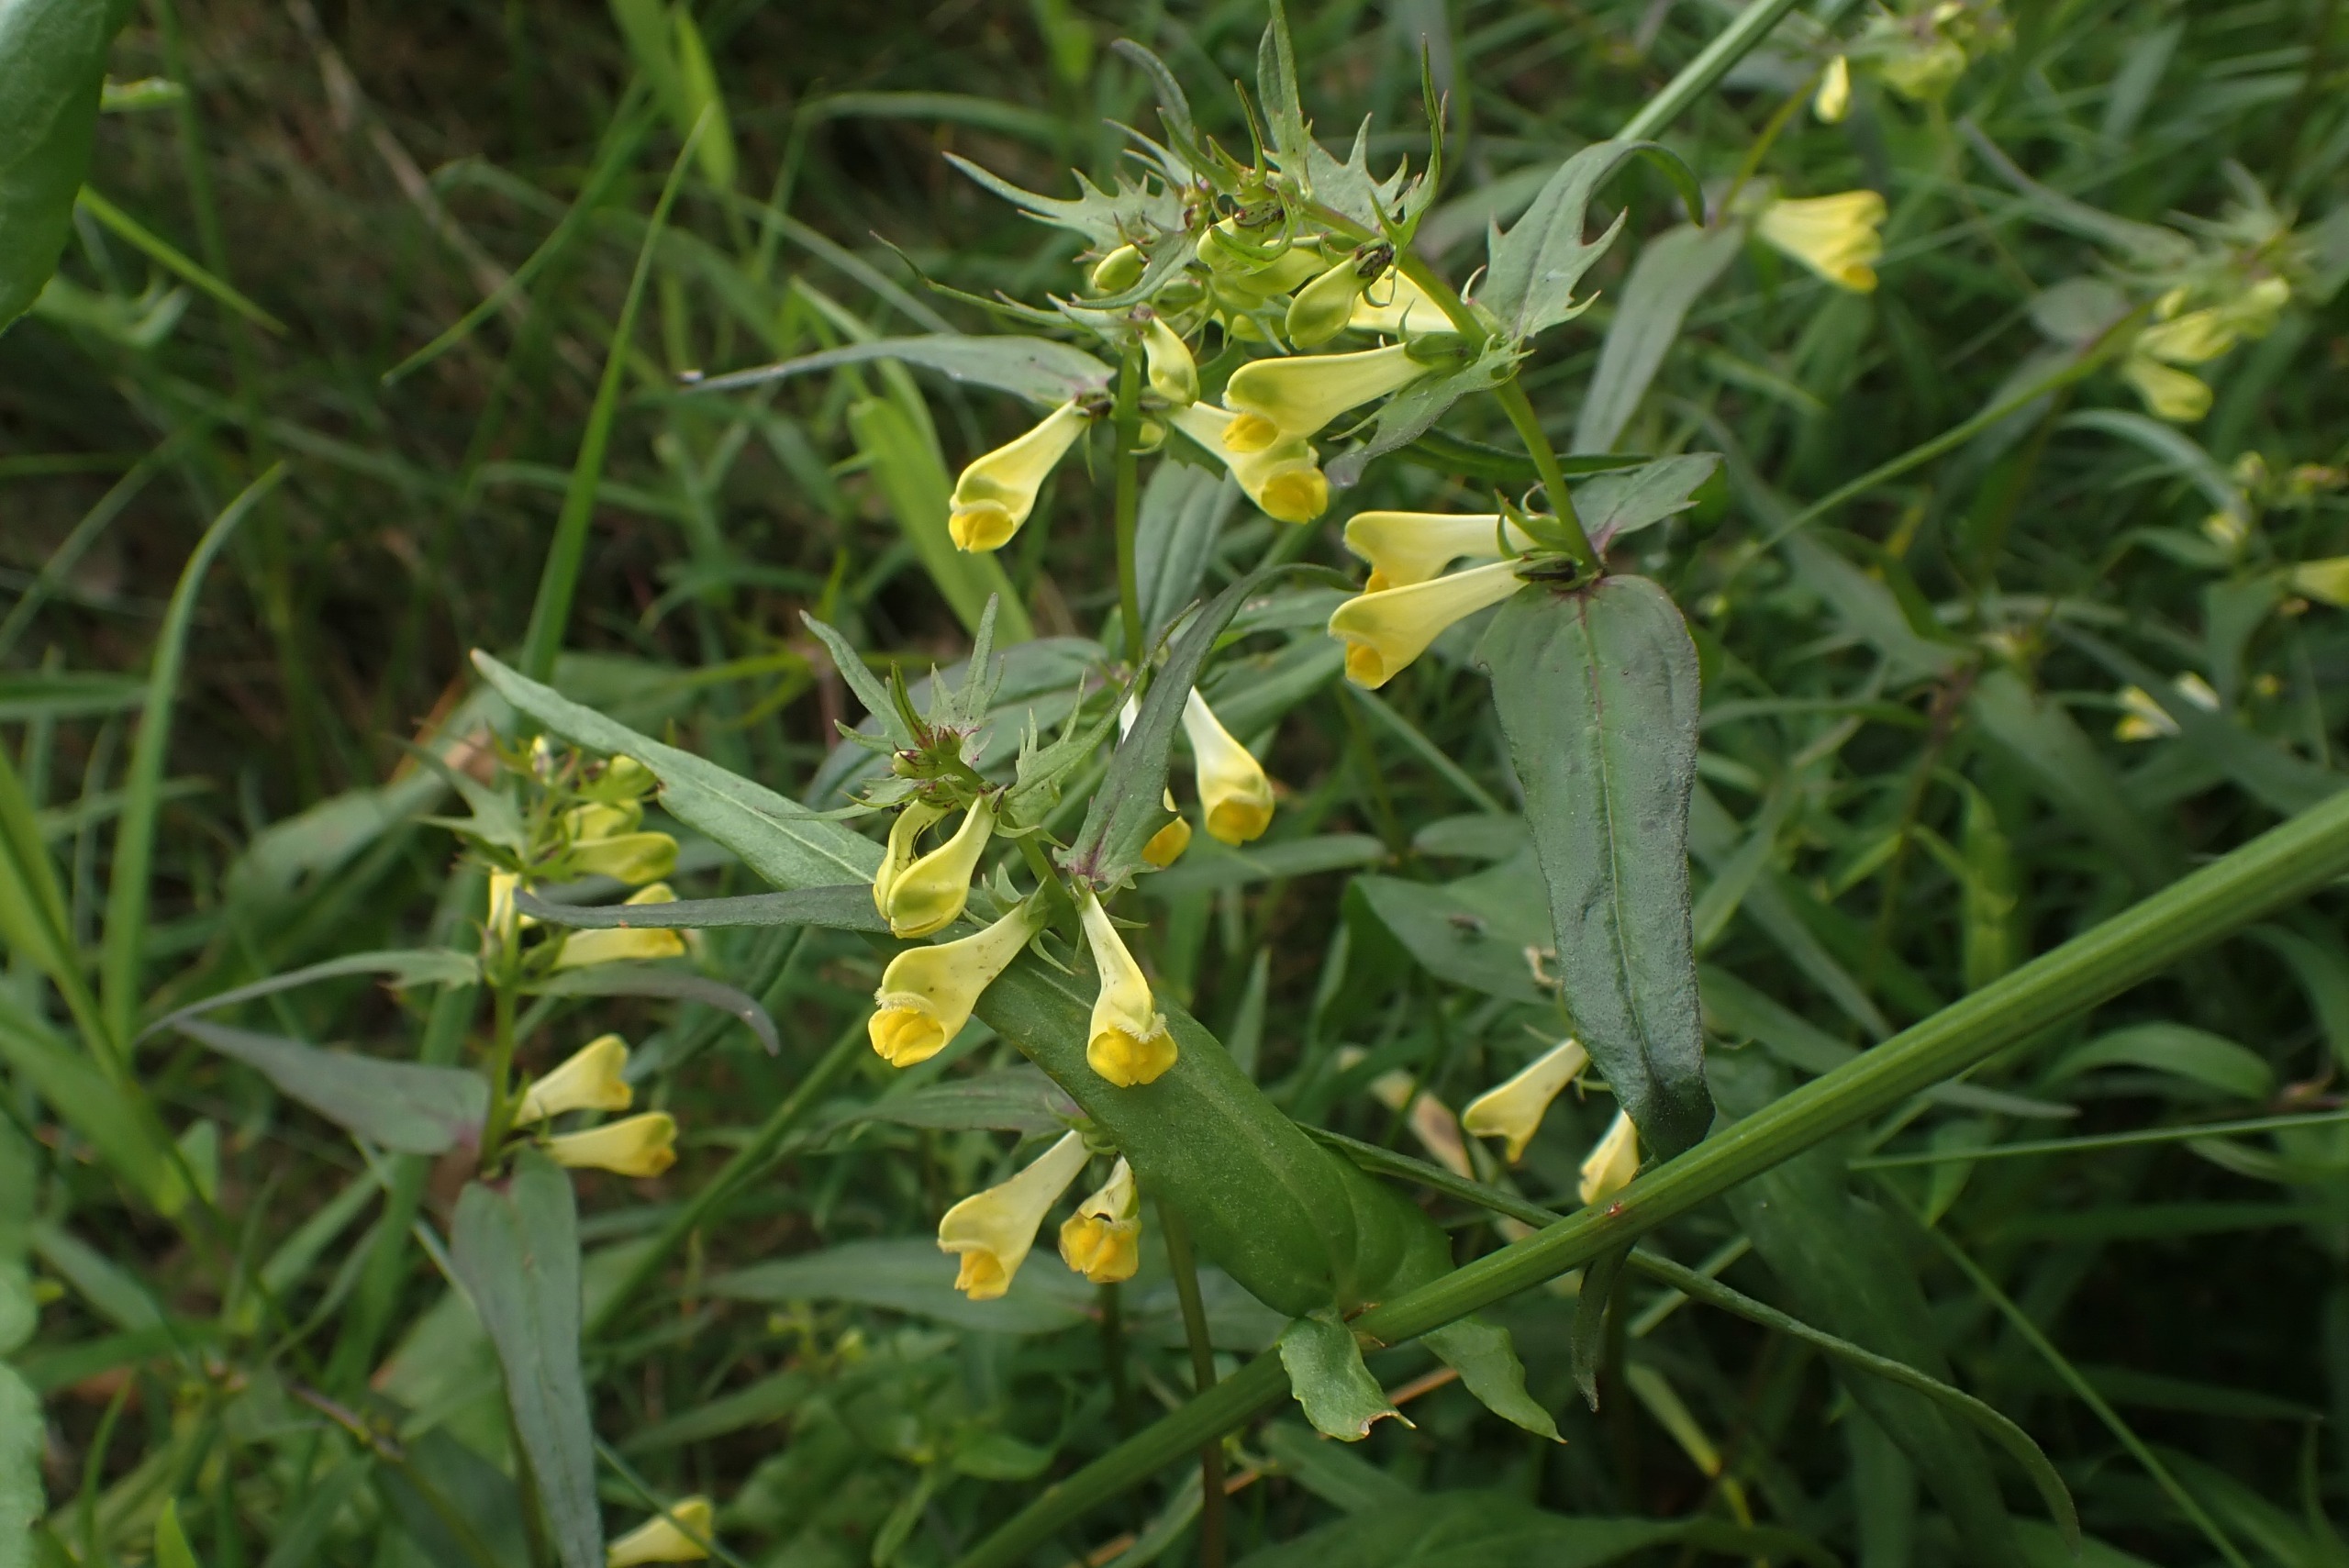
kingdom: Plantae
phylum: Tracheophyta
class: Magnoliopsida
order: Lamiales
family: Orobanchaceae
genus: Melampyrum
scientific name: Melampyrum pratense
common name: Almindelig kohvede
